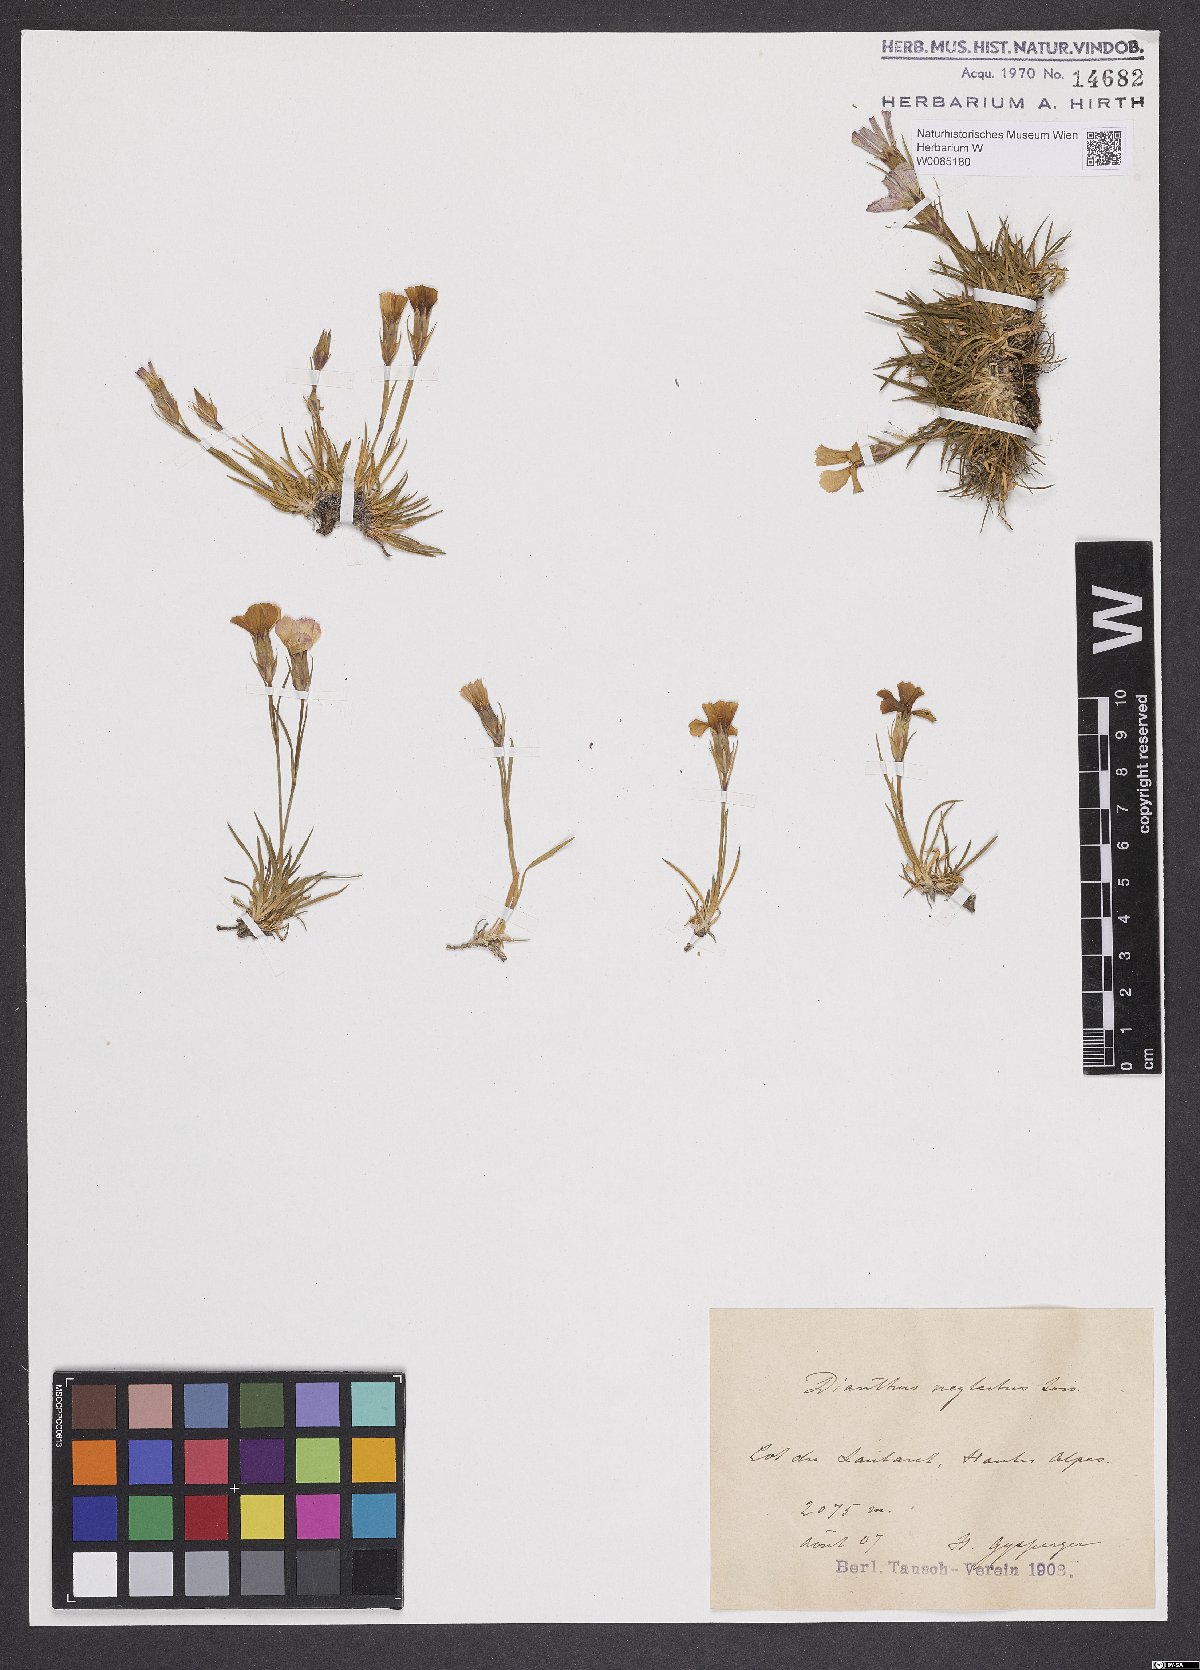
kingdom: Plantae
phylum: Tracheophyta
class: Magnoliopsida
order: Caryophyllales
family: Caryophyllaceae
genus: Dianthus
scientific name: Dianthus pavonius
